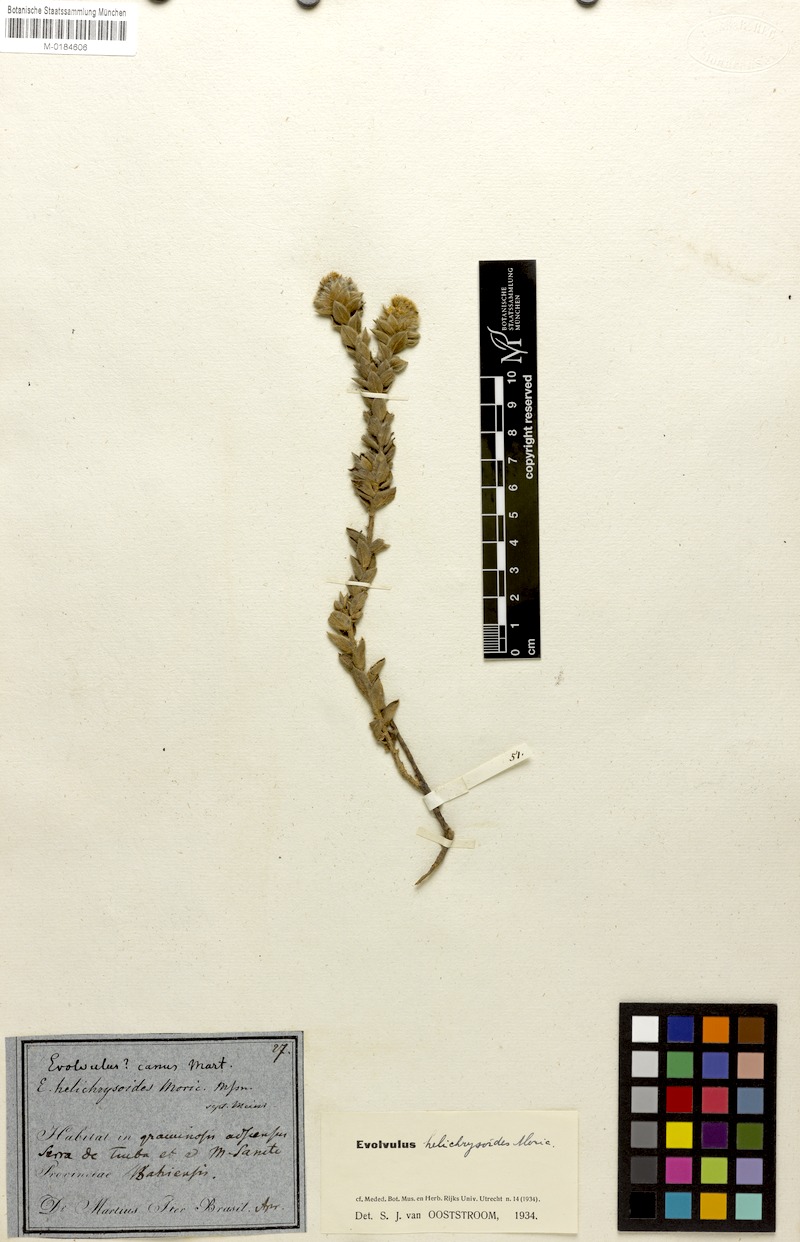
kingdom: Plantae
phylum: Tracheophyta
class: Magnoliopsida
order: Solanales
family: Convolvulaceae
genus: Evolvulus
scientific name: Evolvulus helichrysoides
